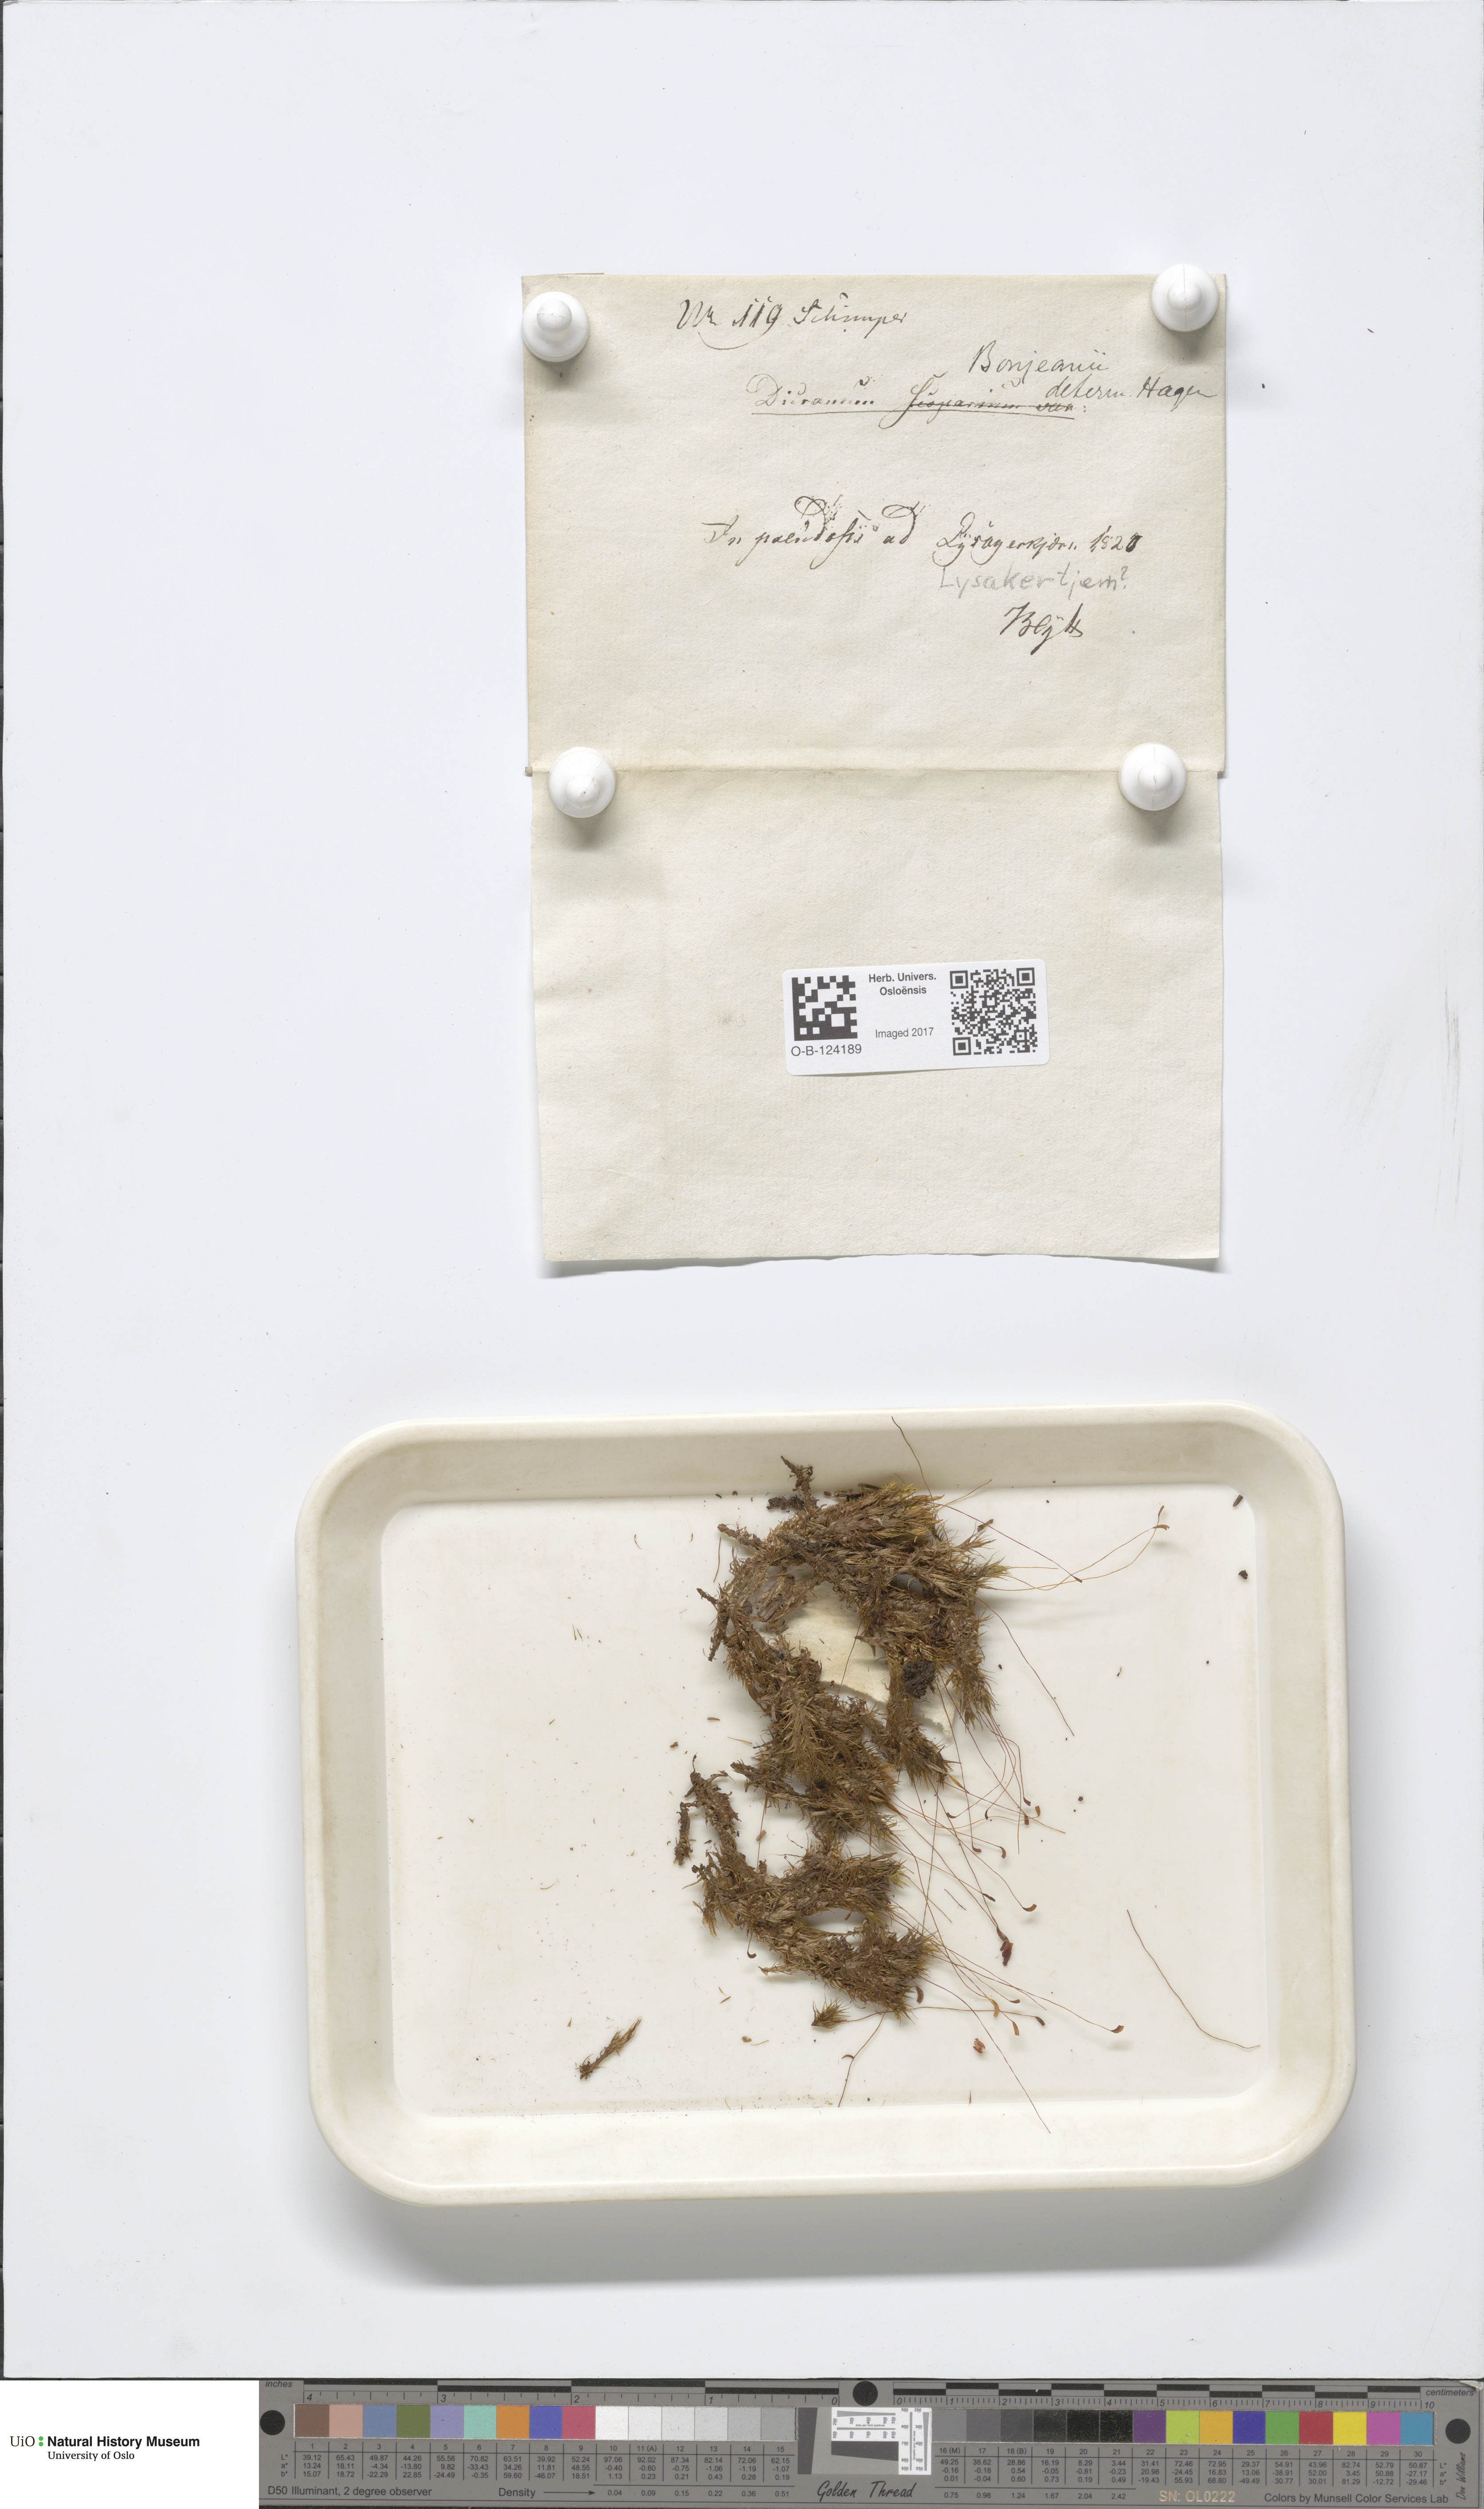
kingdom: Plantae
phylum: Bryophyta
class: Bryopsida
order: Dicranales
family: Dicranaceae
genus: Dicranum
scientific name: Dicranum bonjeanii
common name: Bonjean's broom moss
